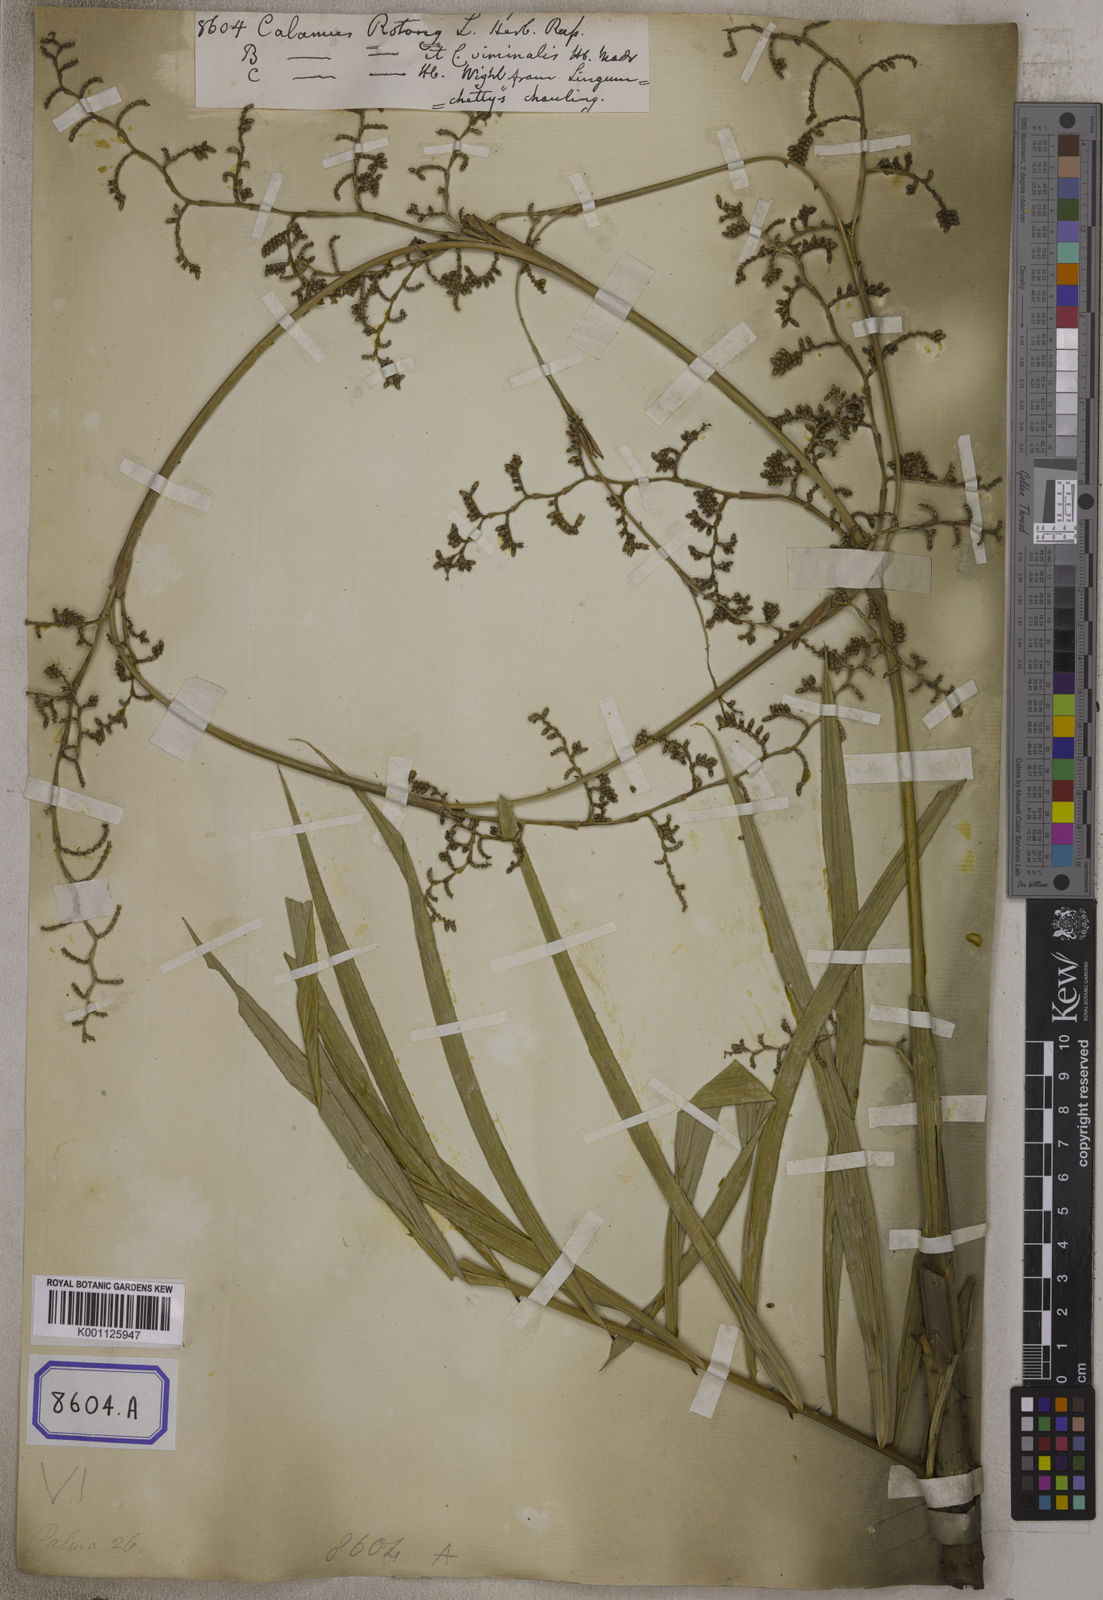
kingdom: Plantae
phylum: Tracheophyta
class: Liliopsida
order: Arecales
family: Arecaceae
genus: Calamus
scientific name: Calamus rotang
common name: Rattan cane
